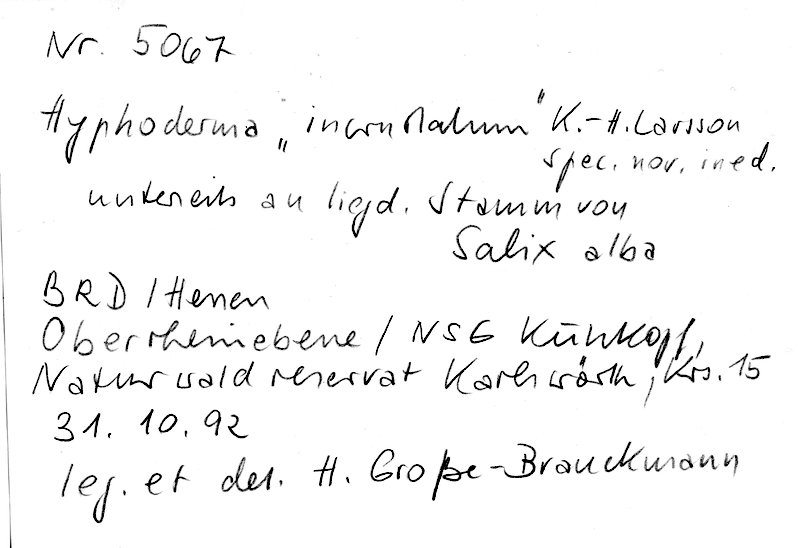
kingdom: Plantae
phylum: Tracheophyta
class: Magnoliopsida
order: Malpighiales
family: Salicaceae
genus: Salix
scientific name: Salix alba
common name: White willow
